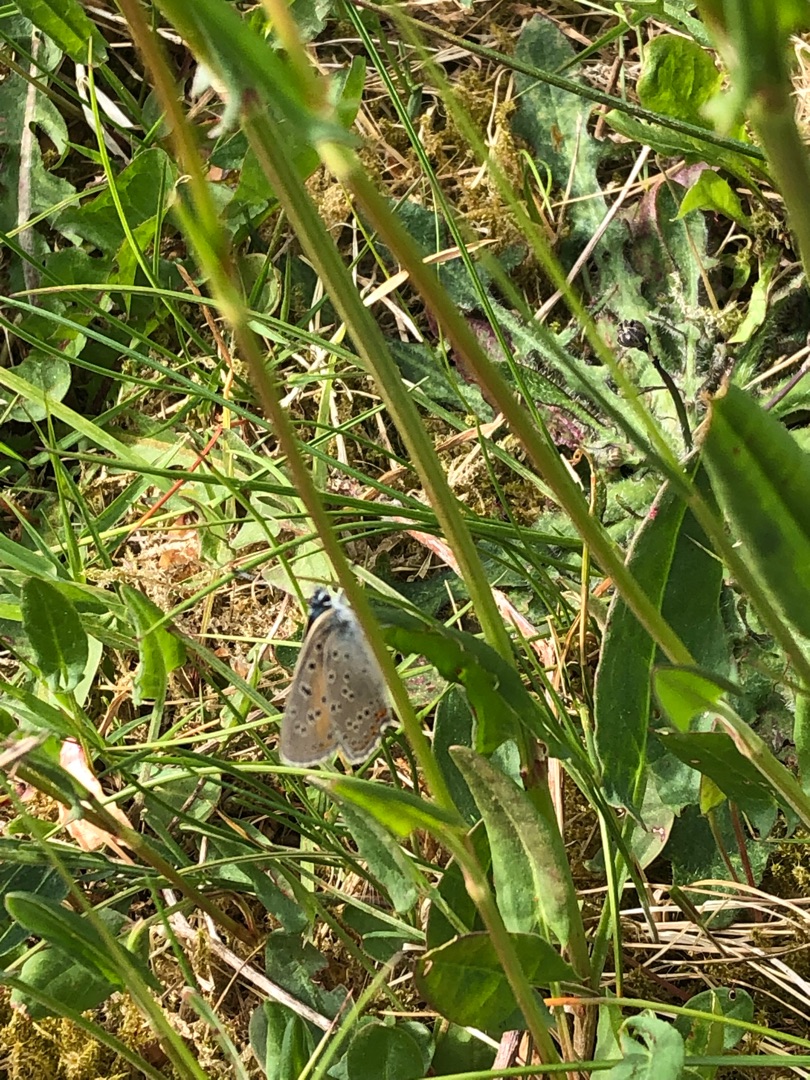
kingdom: Animalia
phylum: Arthropoda
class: Insecta
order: Lepidoptera
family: Lycaenidae
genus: Palaeochrysophanus
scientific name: Palaeochrysophanus hippothoe
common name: Violetrandet ildfugl
